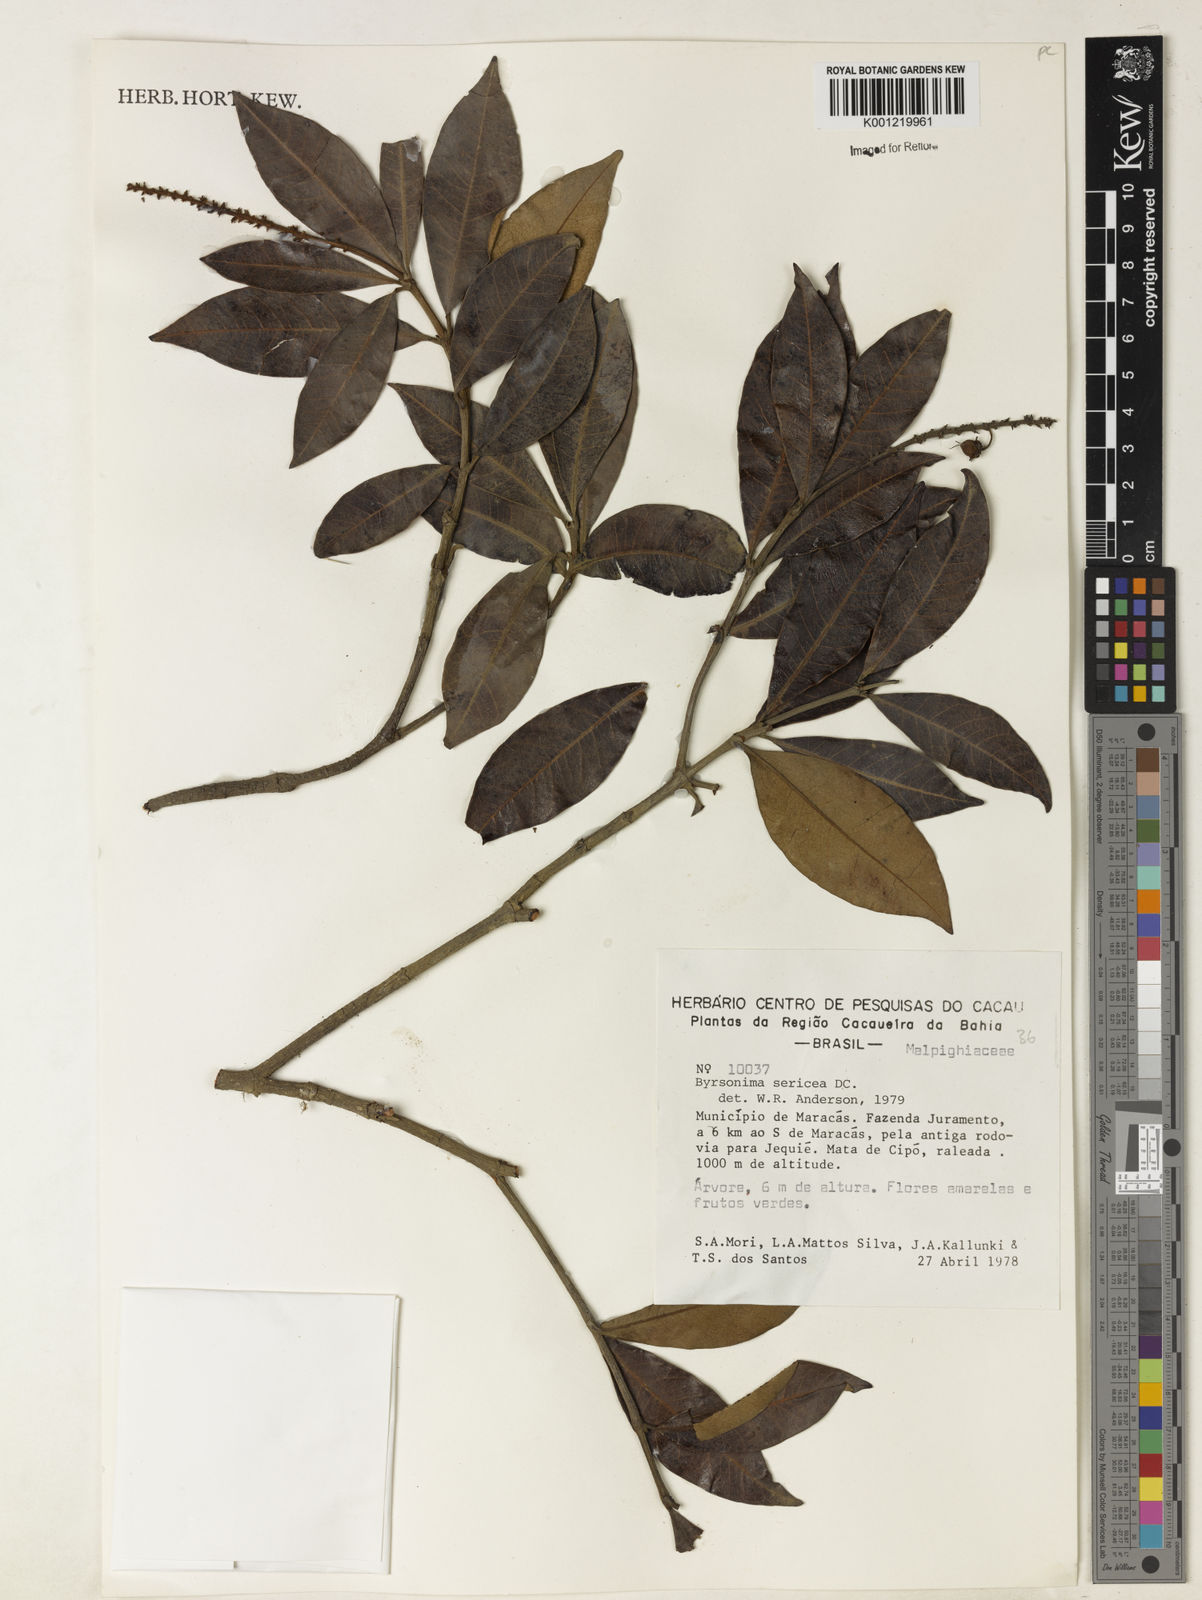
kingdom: Plantae
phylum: Tracheophyta
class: Magnoliopsida
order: Malpighiales
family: Malpighiaceae
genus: Byrsonima
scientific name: Byrsonima sericea
